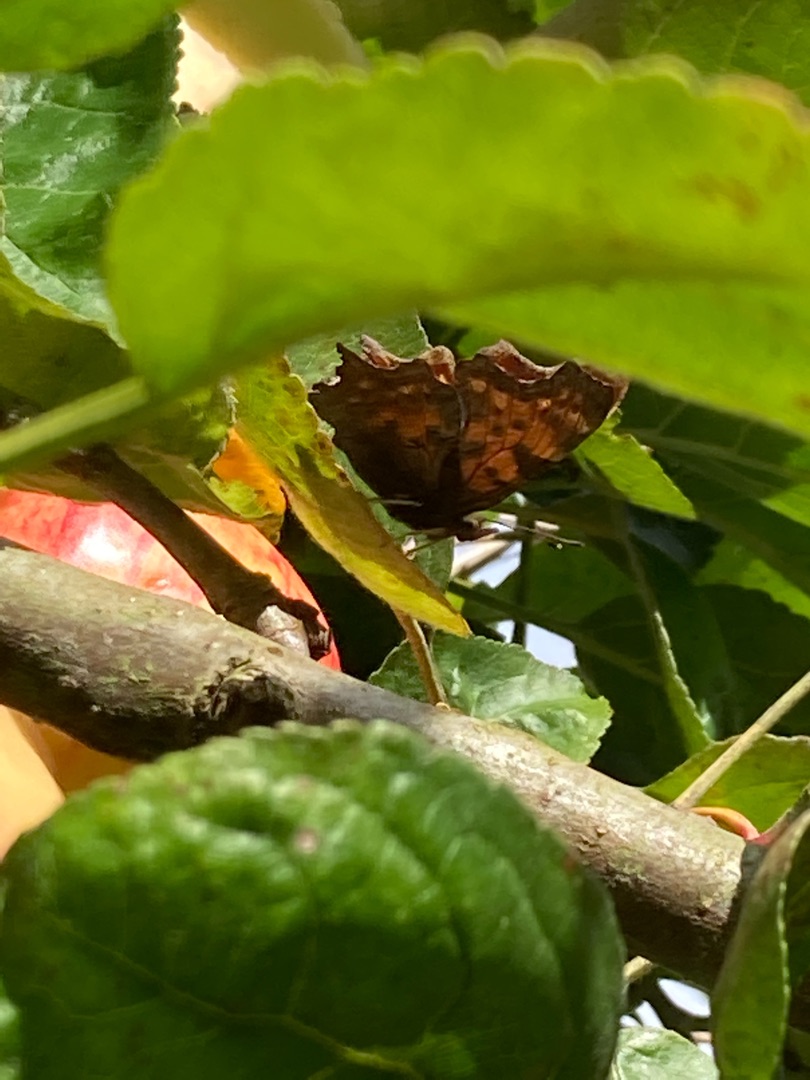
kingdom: Animalia
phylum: Arthropoda
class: Insecta
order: Lepidoptera
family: Nymphalidae
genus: Polygonia
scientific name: Polygonia c-album
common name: Det hvide C
